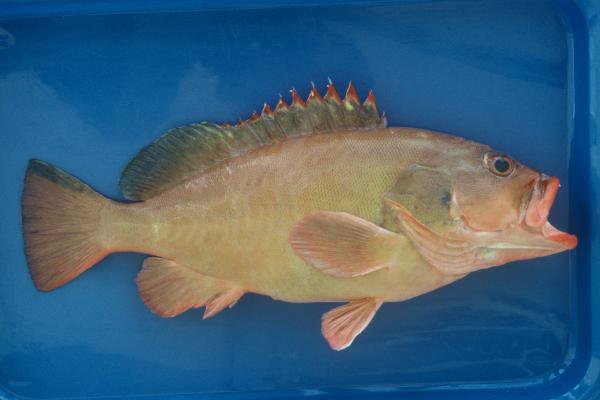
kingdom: Animalia
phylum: Chordata
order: Perciformes
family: Serranidae
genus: Epinephelus
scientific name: Epinephelus retouti
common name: Red-tipped grouper
